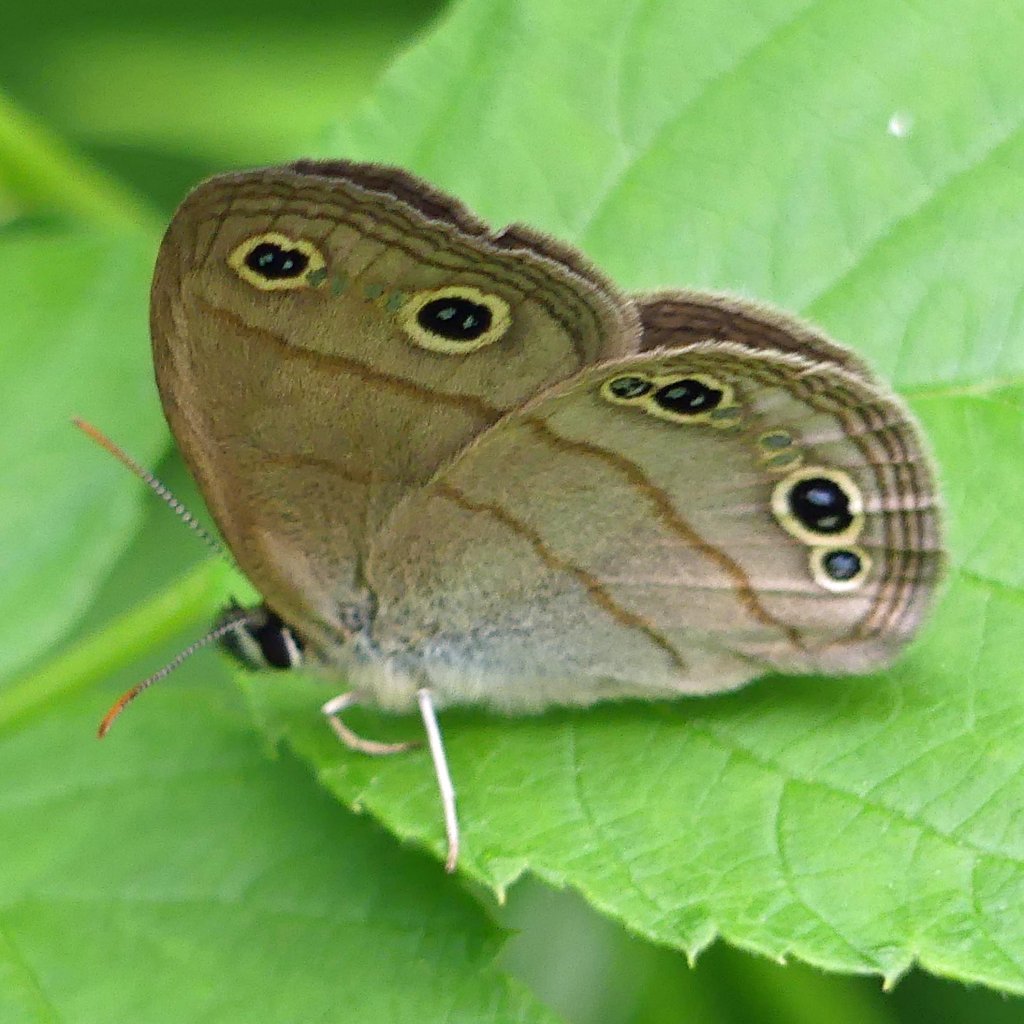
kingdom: Animalia
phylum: Arthropoda
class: Insecta
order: Lepidoptera
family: Nymphalidae
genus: Euptychia
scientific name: Euptychia cymela
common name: Little Wood Satyr
